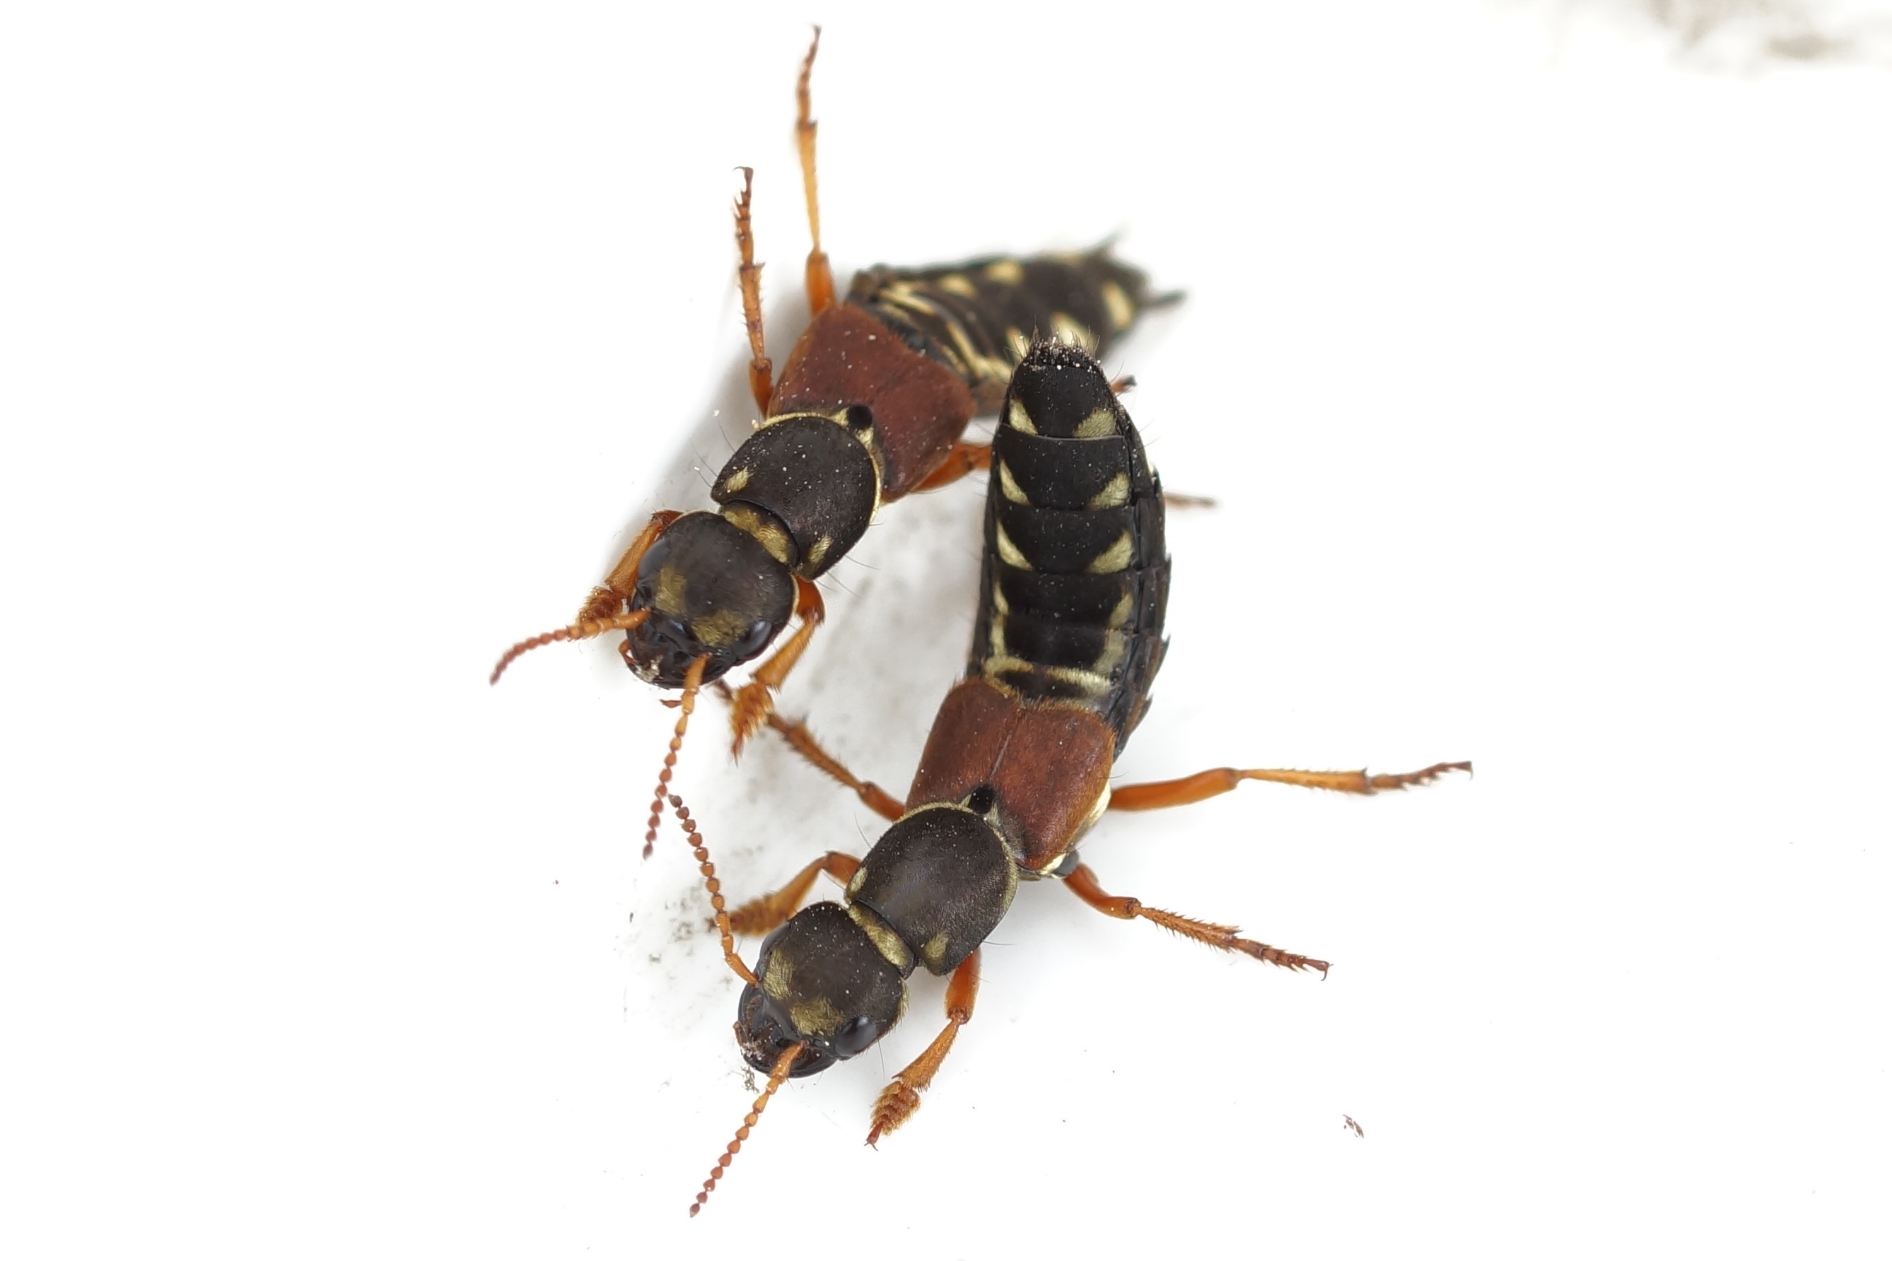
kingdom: Animalia
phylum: Arthropoda
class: Insecta
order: Coleoptera
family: Staphylinidae
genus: Staphylinus
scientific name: Staphylinus caesareus
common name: Kejserrovbille
